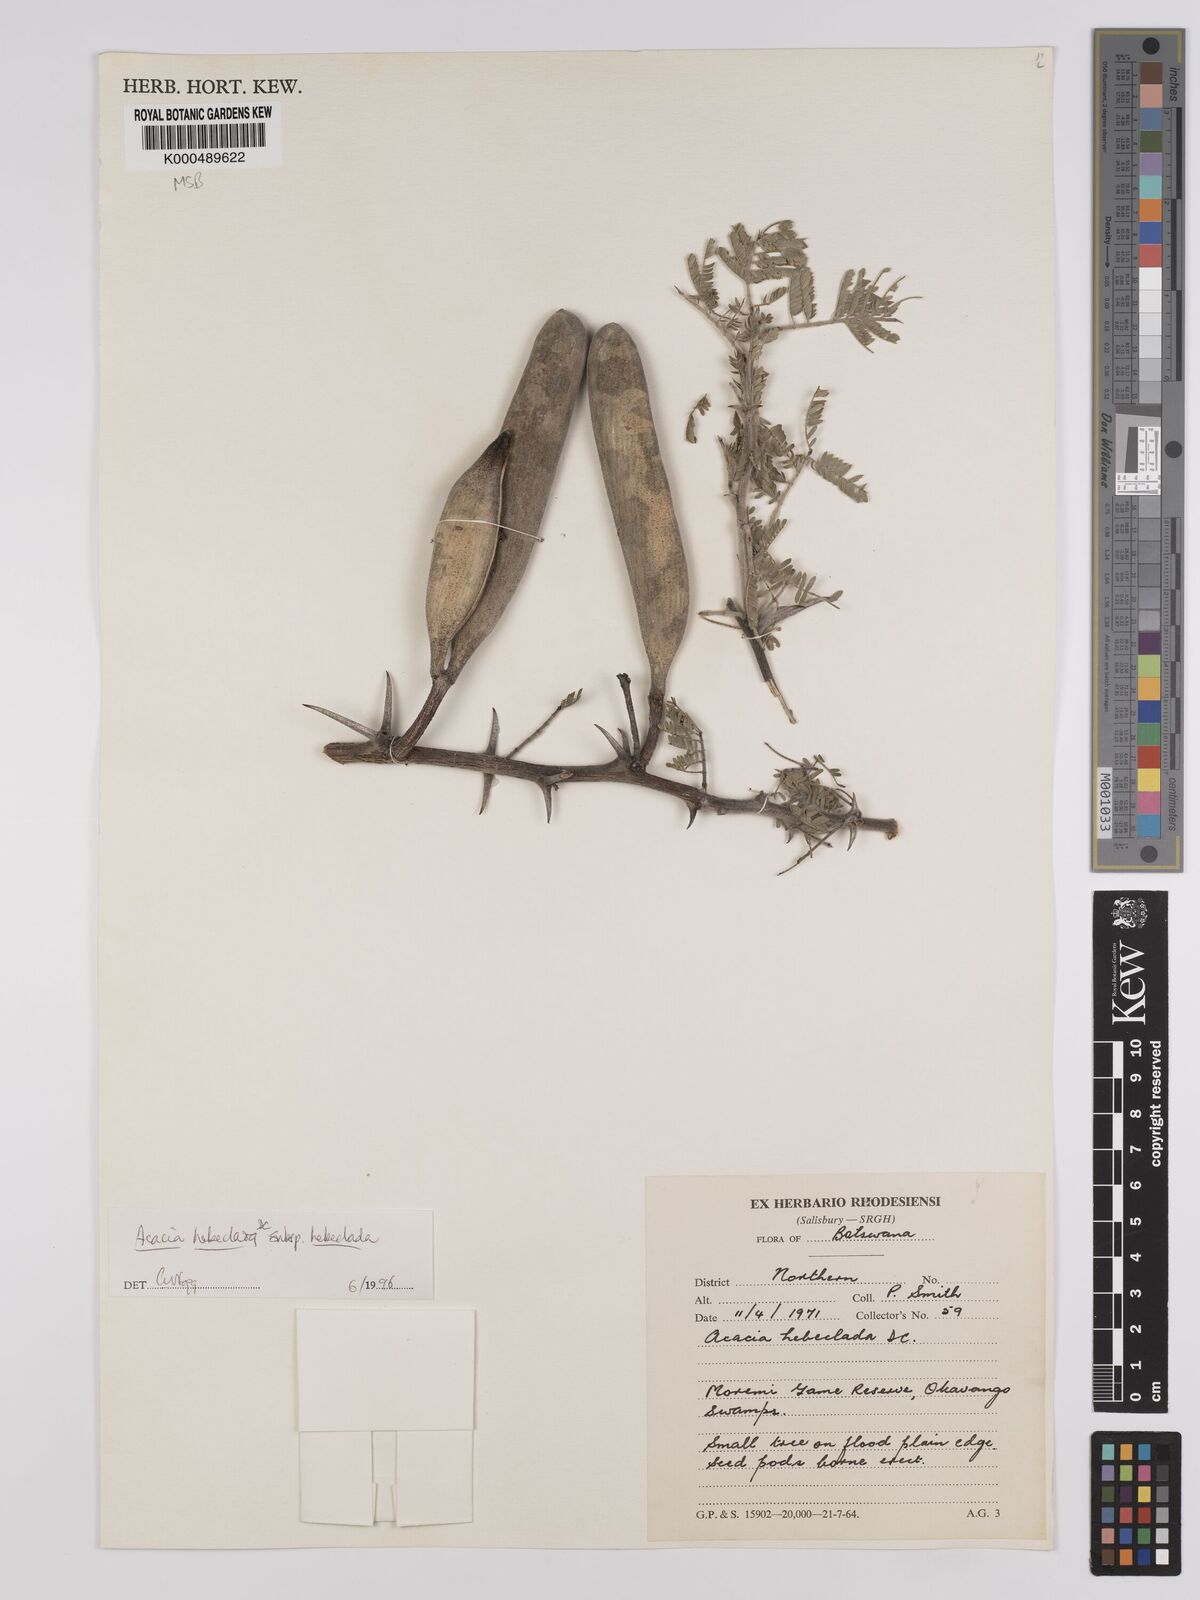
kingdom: Plantae
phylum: Tracheophyta
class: Magnoliopsida
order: Fabales
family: Fabaceae
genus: Vachellia
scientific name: Vachellia hebeclada
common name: Candle thorn
